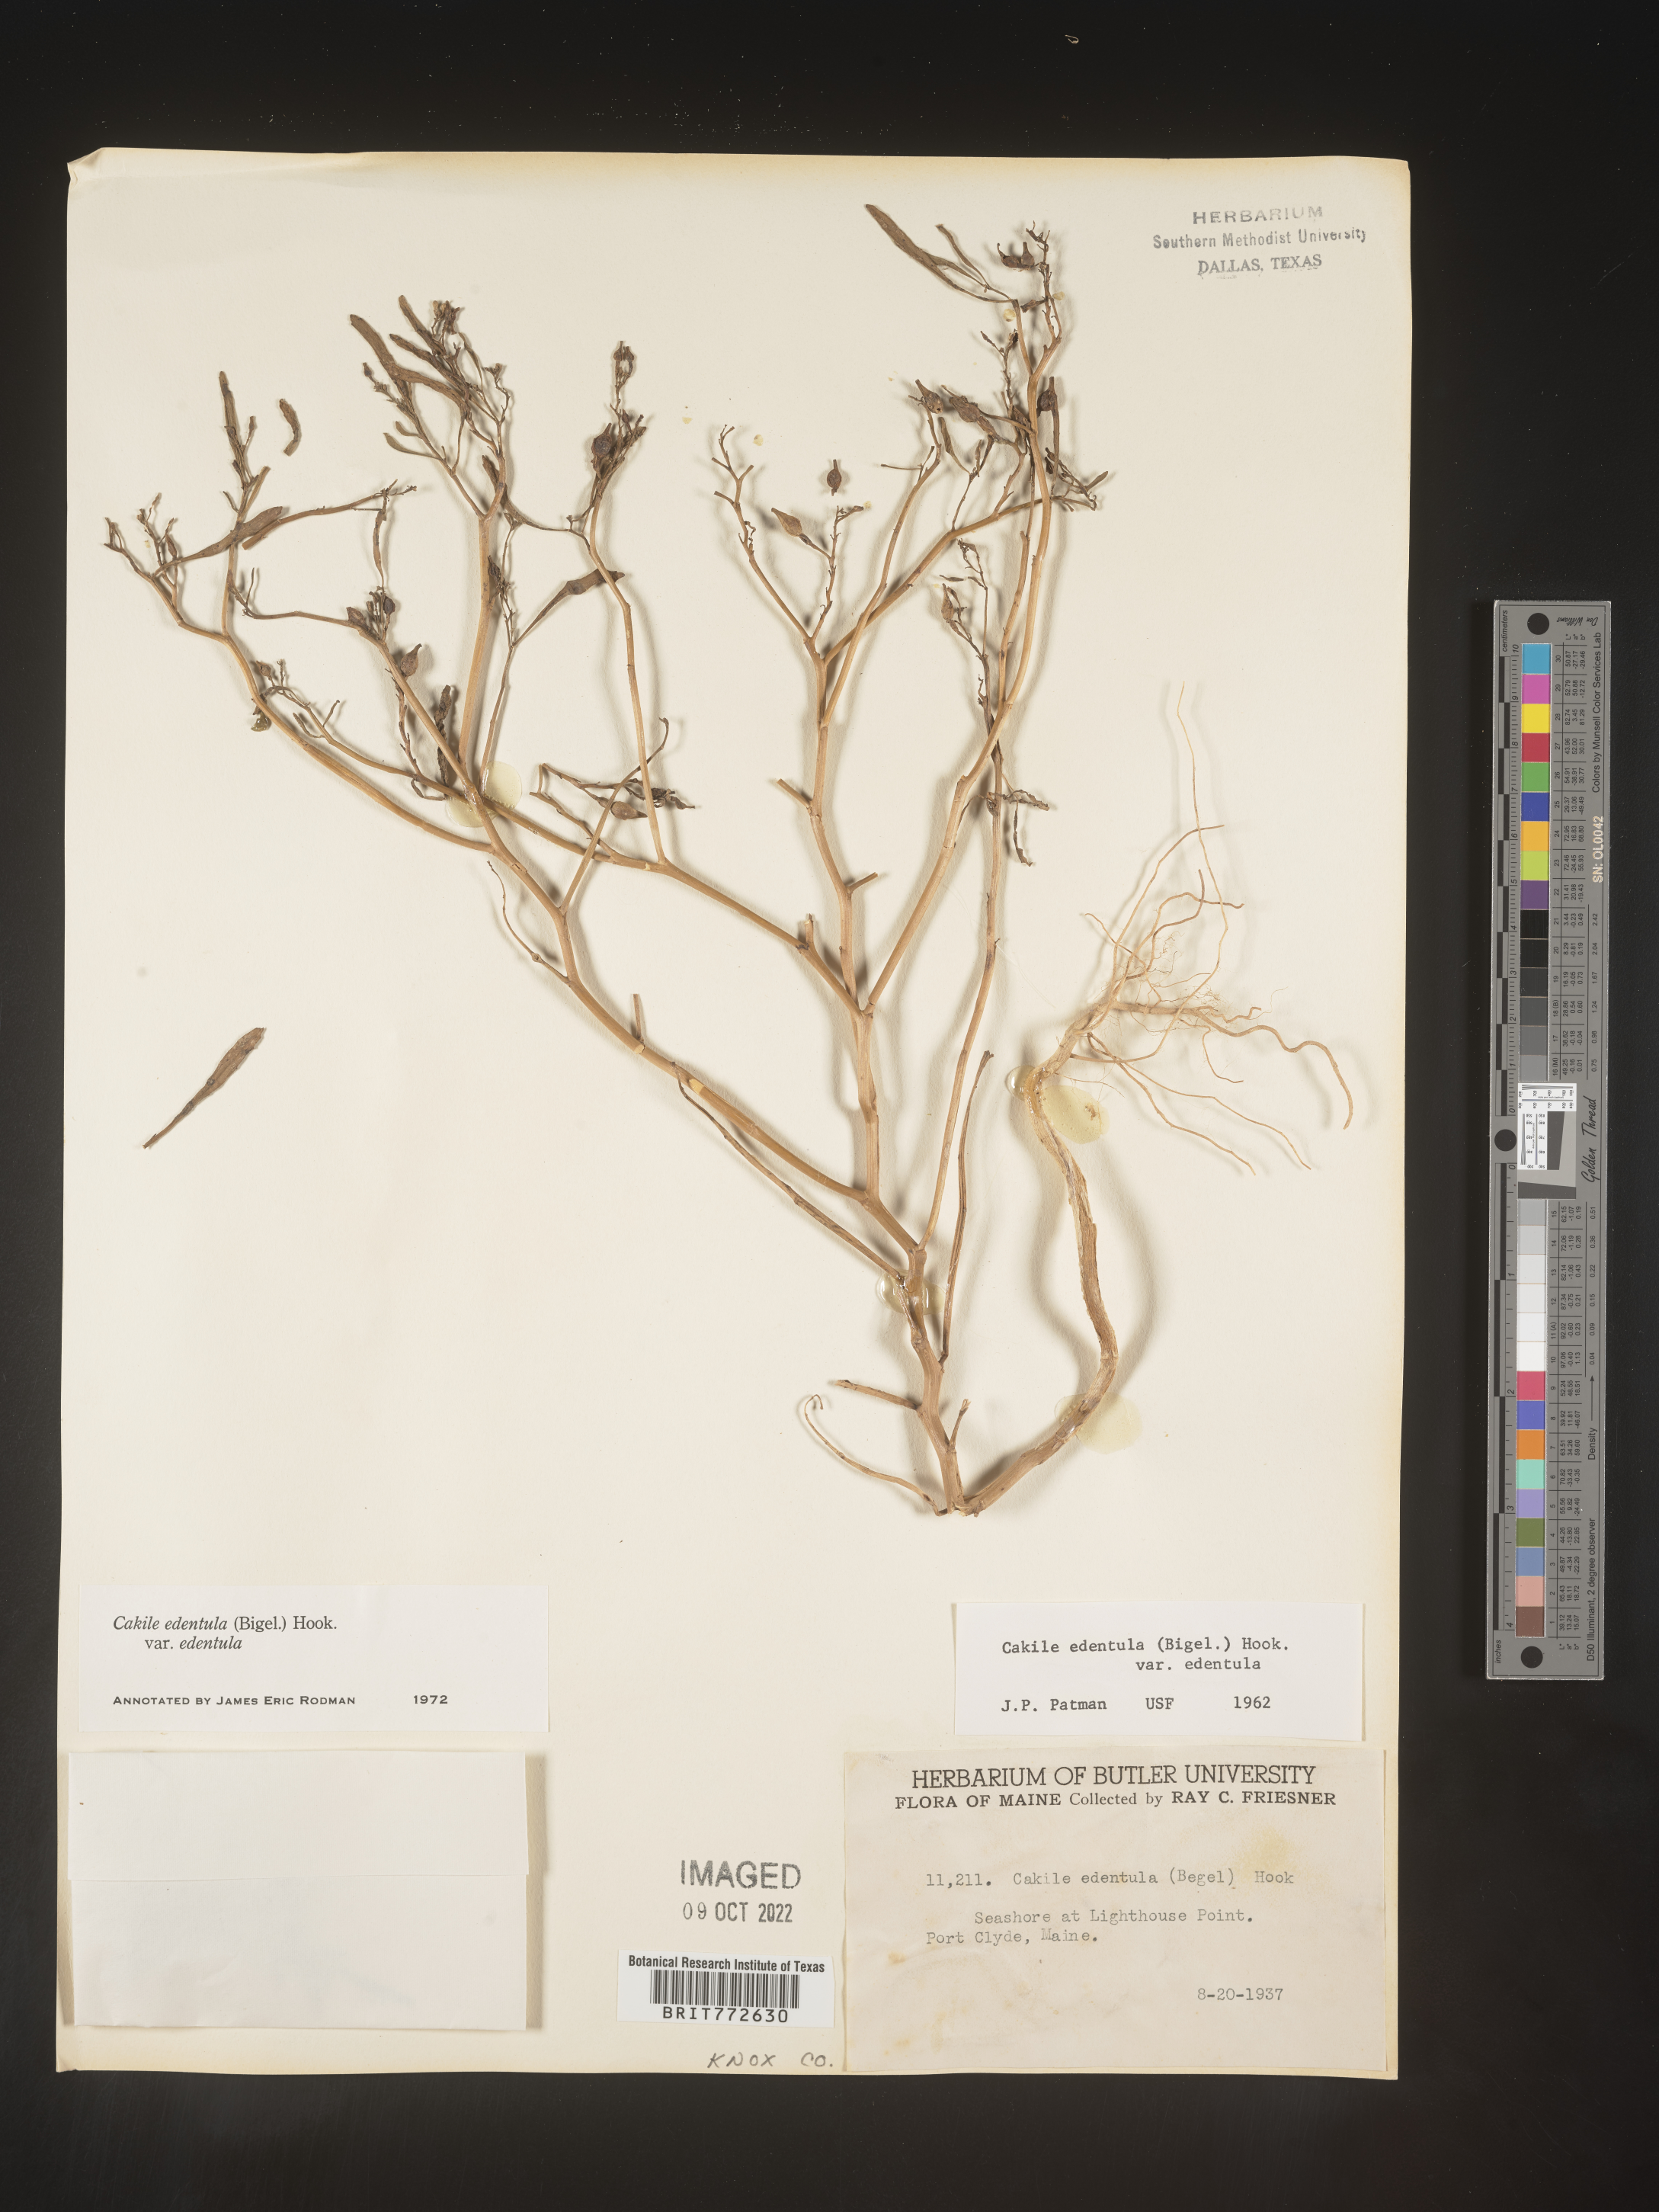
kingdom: Plantae
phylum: Tracheophyta
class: Magnoliopsida
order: Brassicales
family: Brassicaceae
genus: Cakile
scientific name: Cakile edentula
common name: American sea rocket
